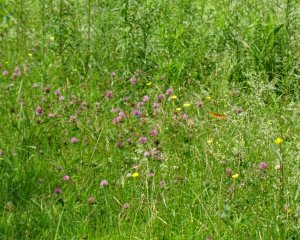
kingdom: Animalia
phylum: Arthropoda
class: Insecta
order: Lepidoptera
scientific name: Lepidoptera
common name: Butterflies
